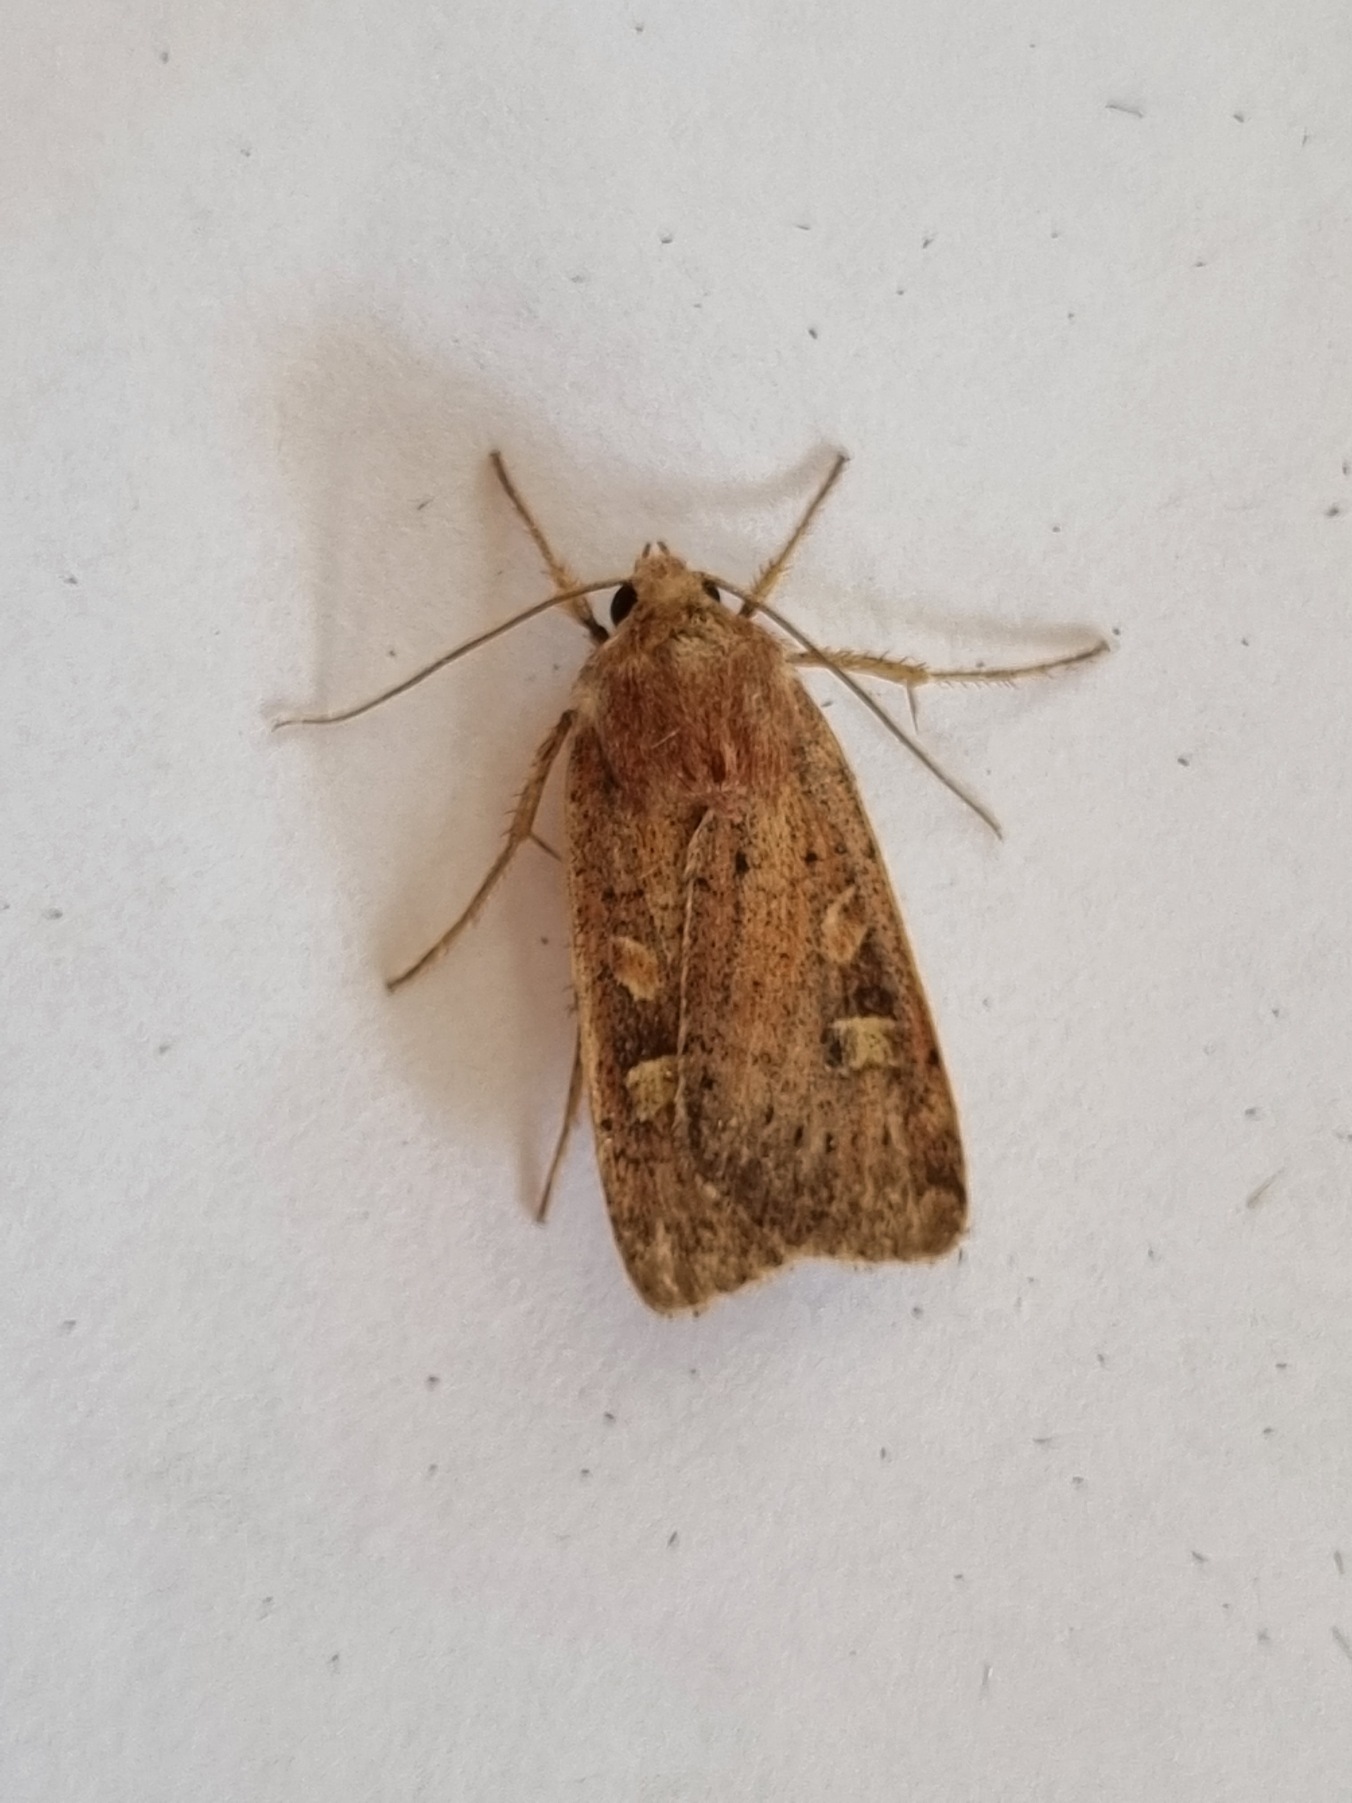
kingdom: Animalia
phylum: Arthropoda
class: Insecta
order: Lepidoptera
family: Noctuidae
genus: Xestia
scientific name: Xestia xanthographa
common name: Gulmærket glansugle
